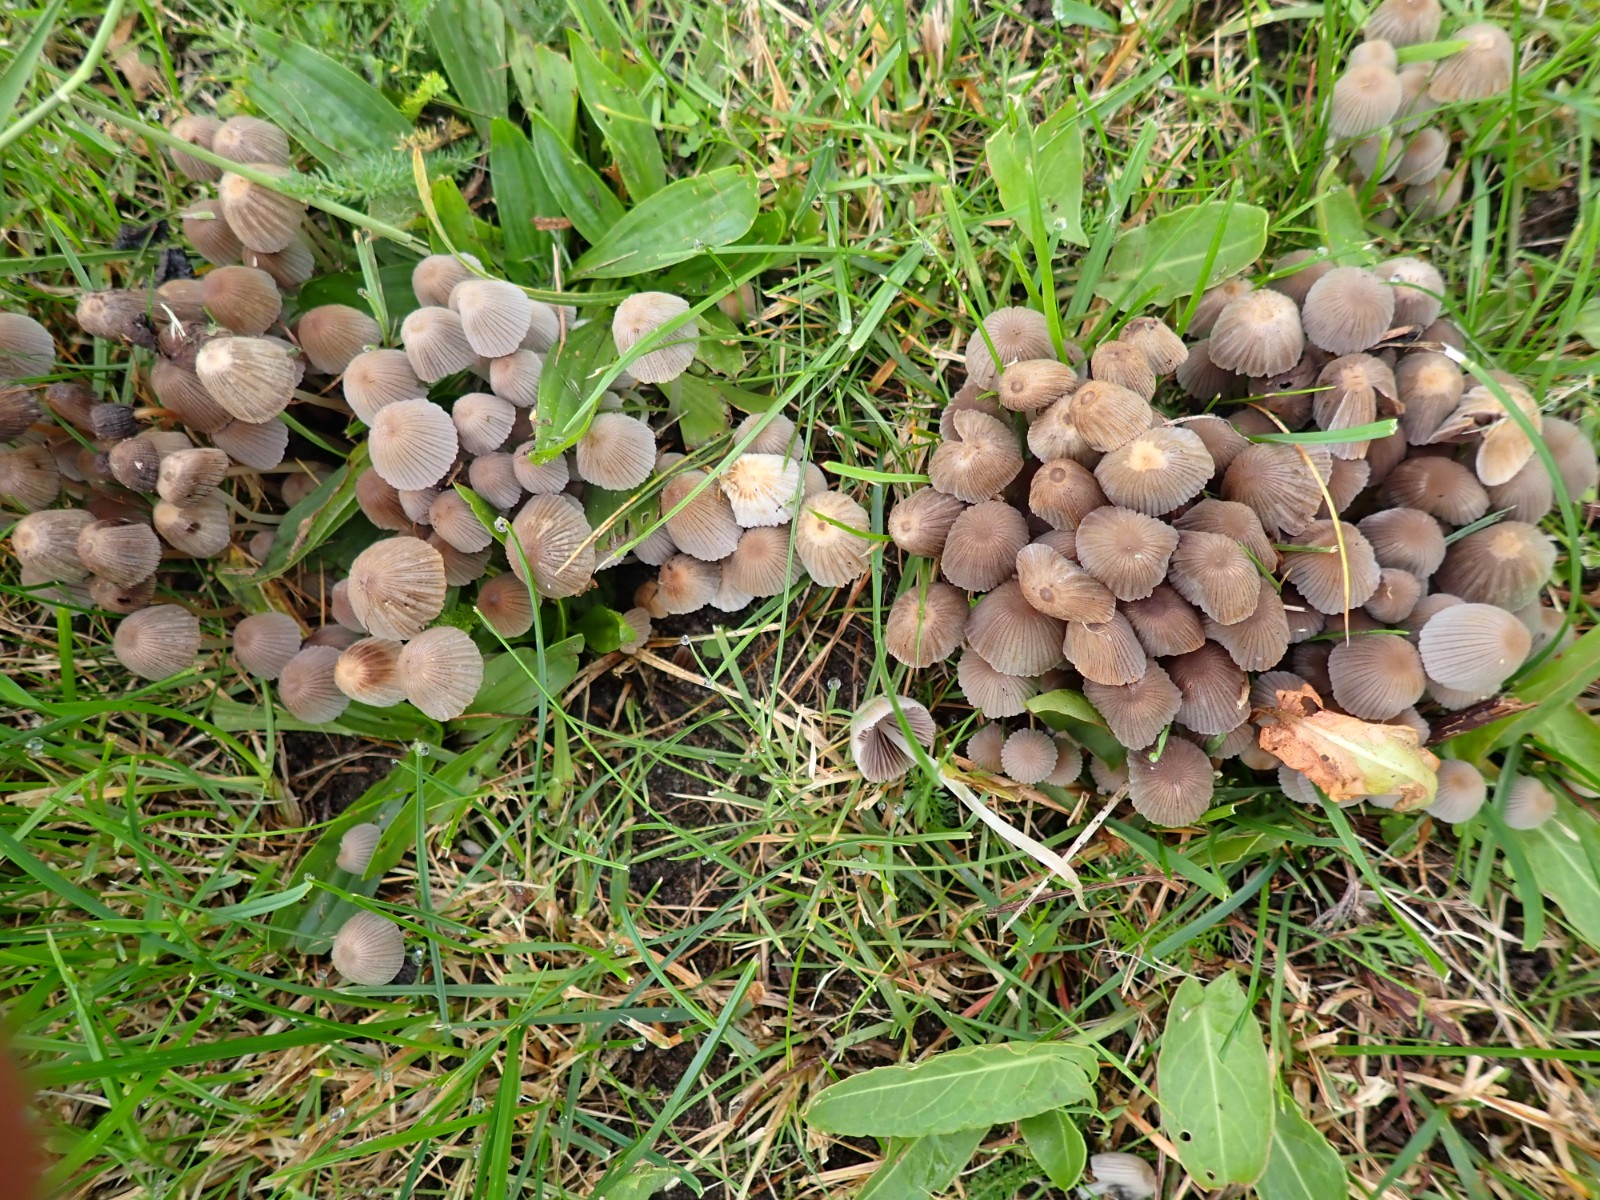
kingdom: Fungi
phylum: Basidiomycota
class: Agaricomycetes
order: Agaricales
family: Psathyrellaceae
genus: Coprinellus
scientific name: Coprinellus disseminatus
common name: bredsået blækhat
